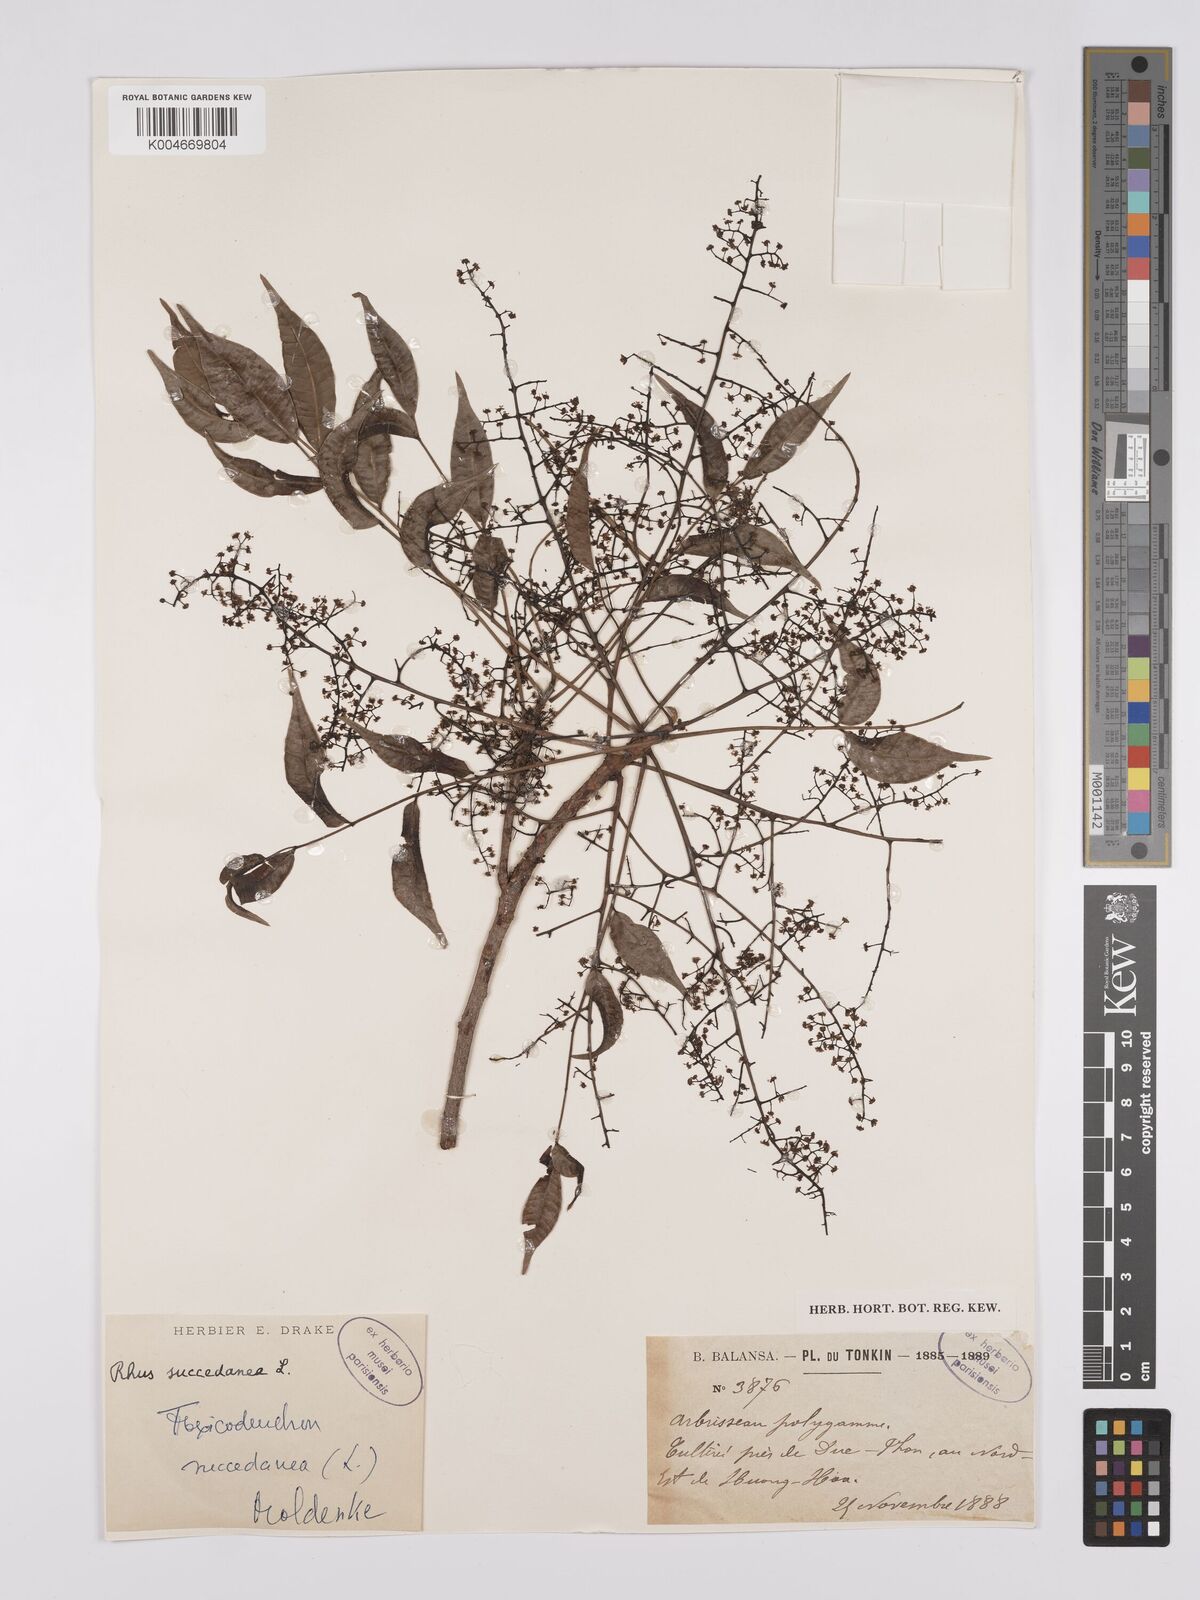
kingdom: Plantae
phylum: Tracheophyta
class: Magnoliopsida
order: Sapindales
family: Anacardiaceae
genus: Toxicodendron
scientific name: Toxicodendron succedaneum
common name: Wax tree
